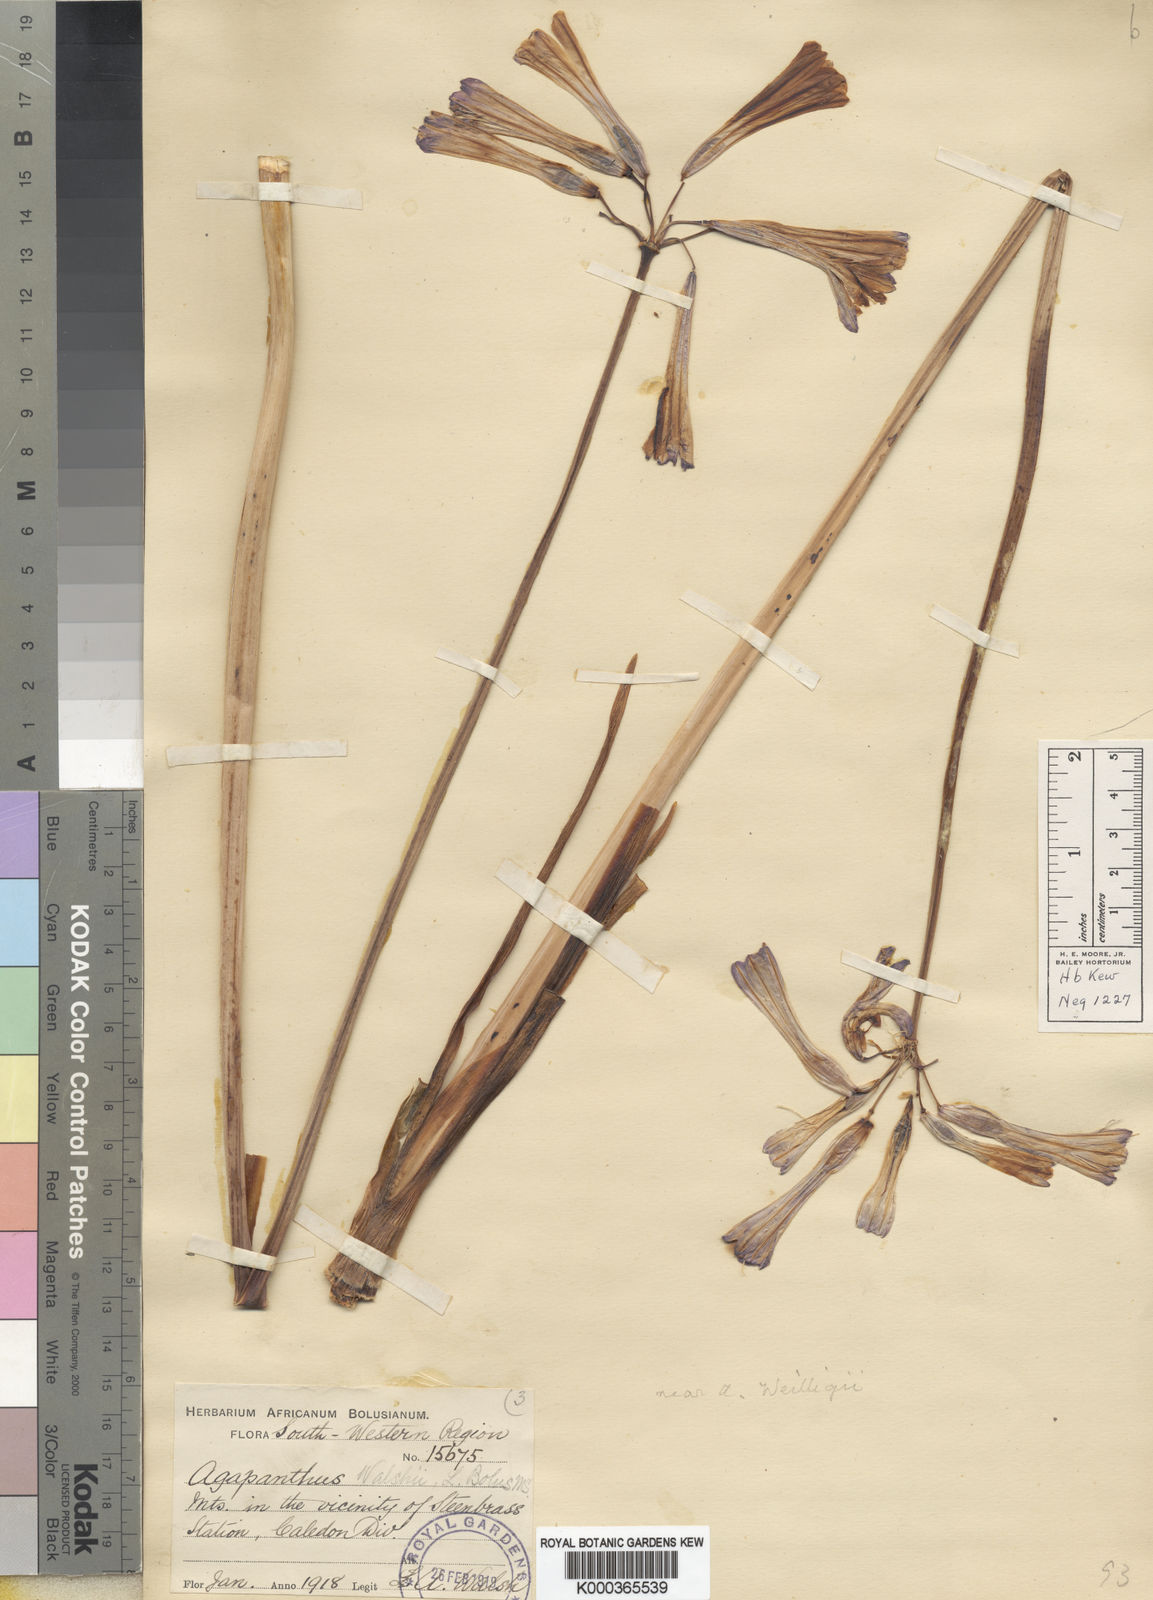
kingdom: Plantae
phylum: Tracheophyta
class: Liliopsida
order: Asparagales
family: Amaryllidaceae
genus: Agapanthus
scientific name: Agapanthus walshii
